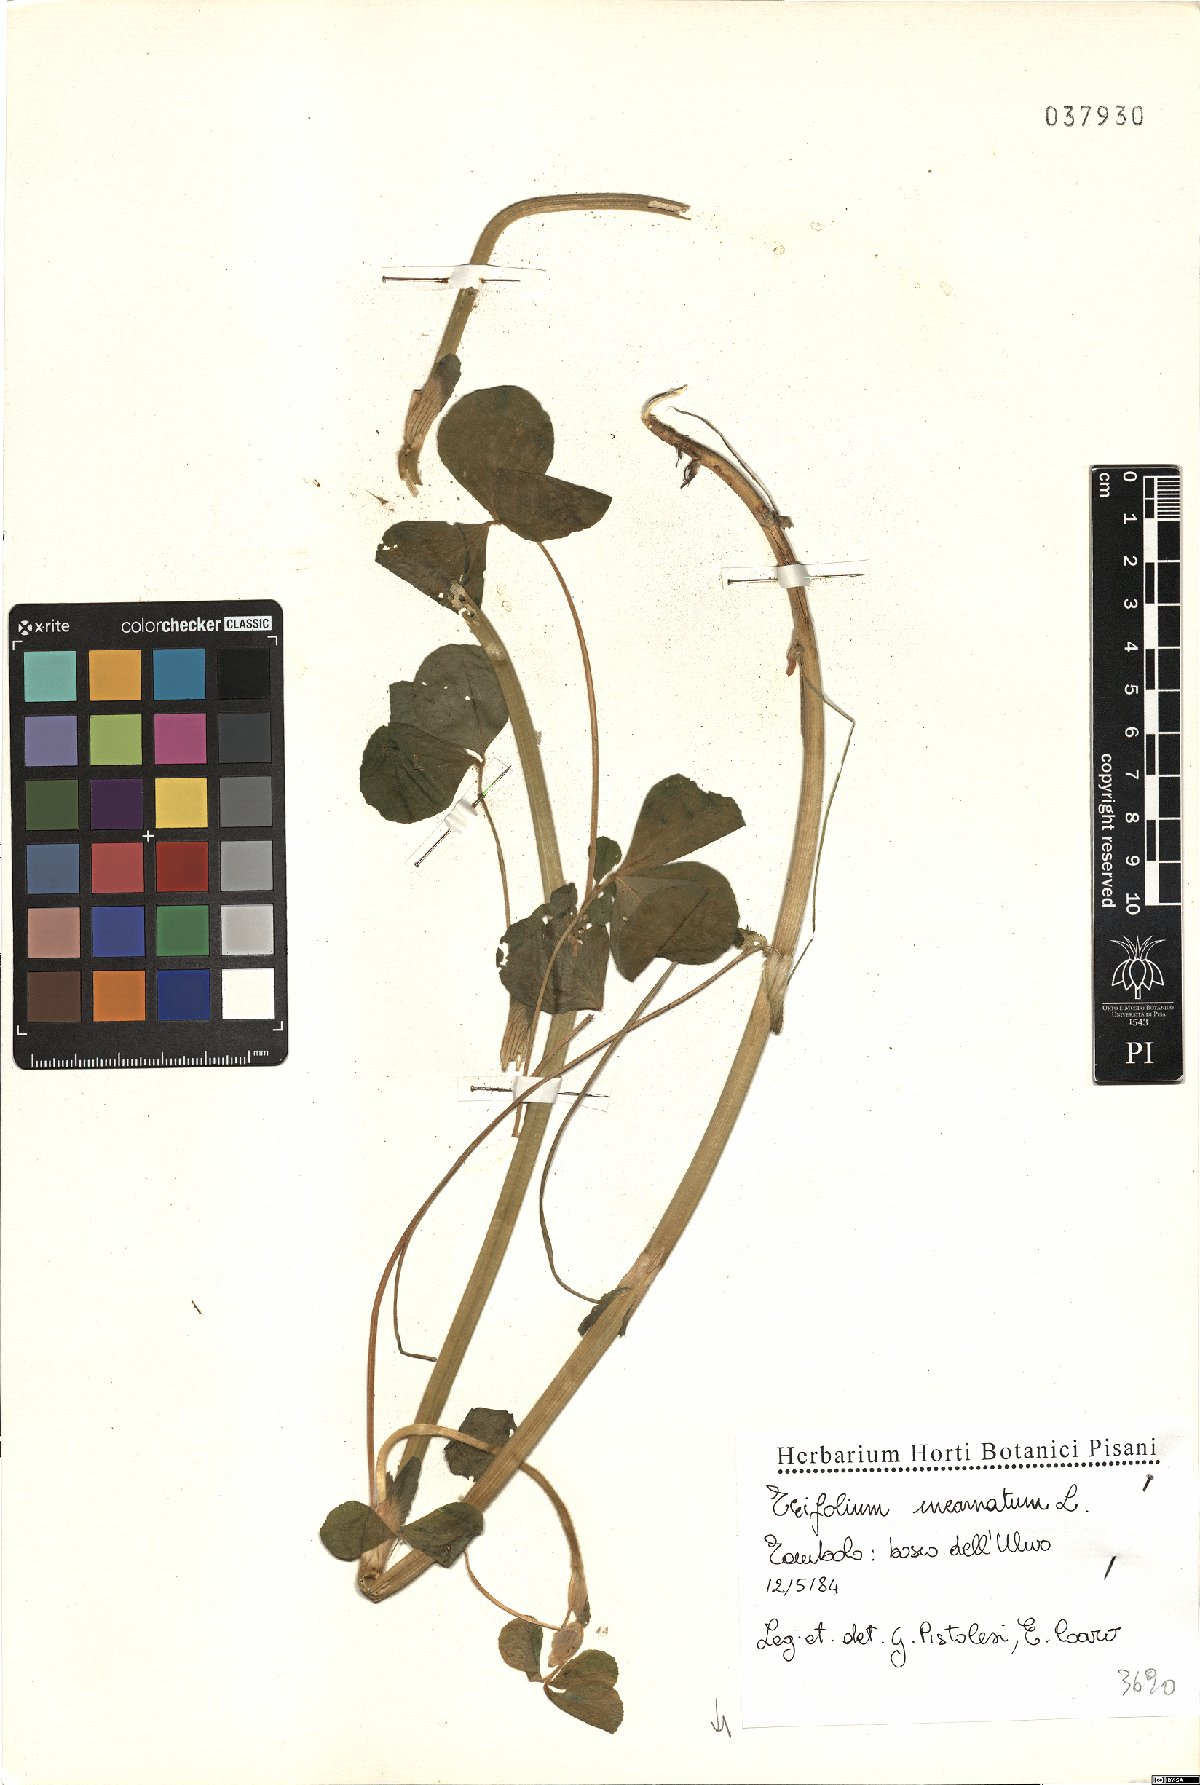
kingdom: Plantae
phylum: Tracheophyta
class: Magnoliopsida
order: Fabales
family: Fabaceae
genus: Trifolium
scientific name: Trifolium incarnatum
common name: Crimson clover
